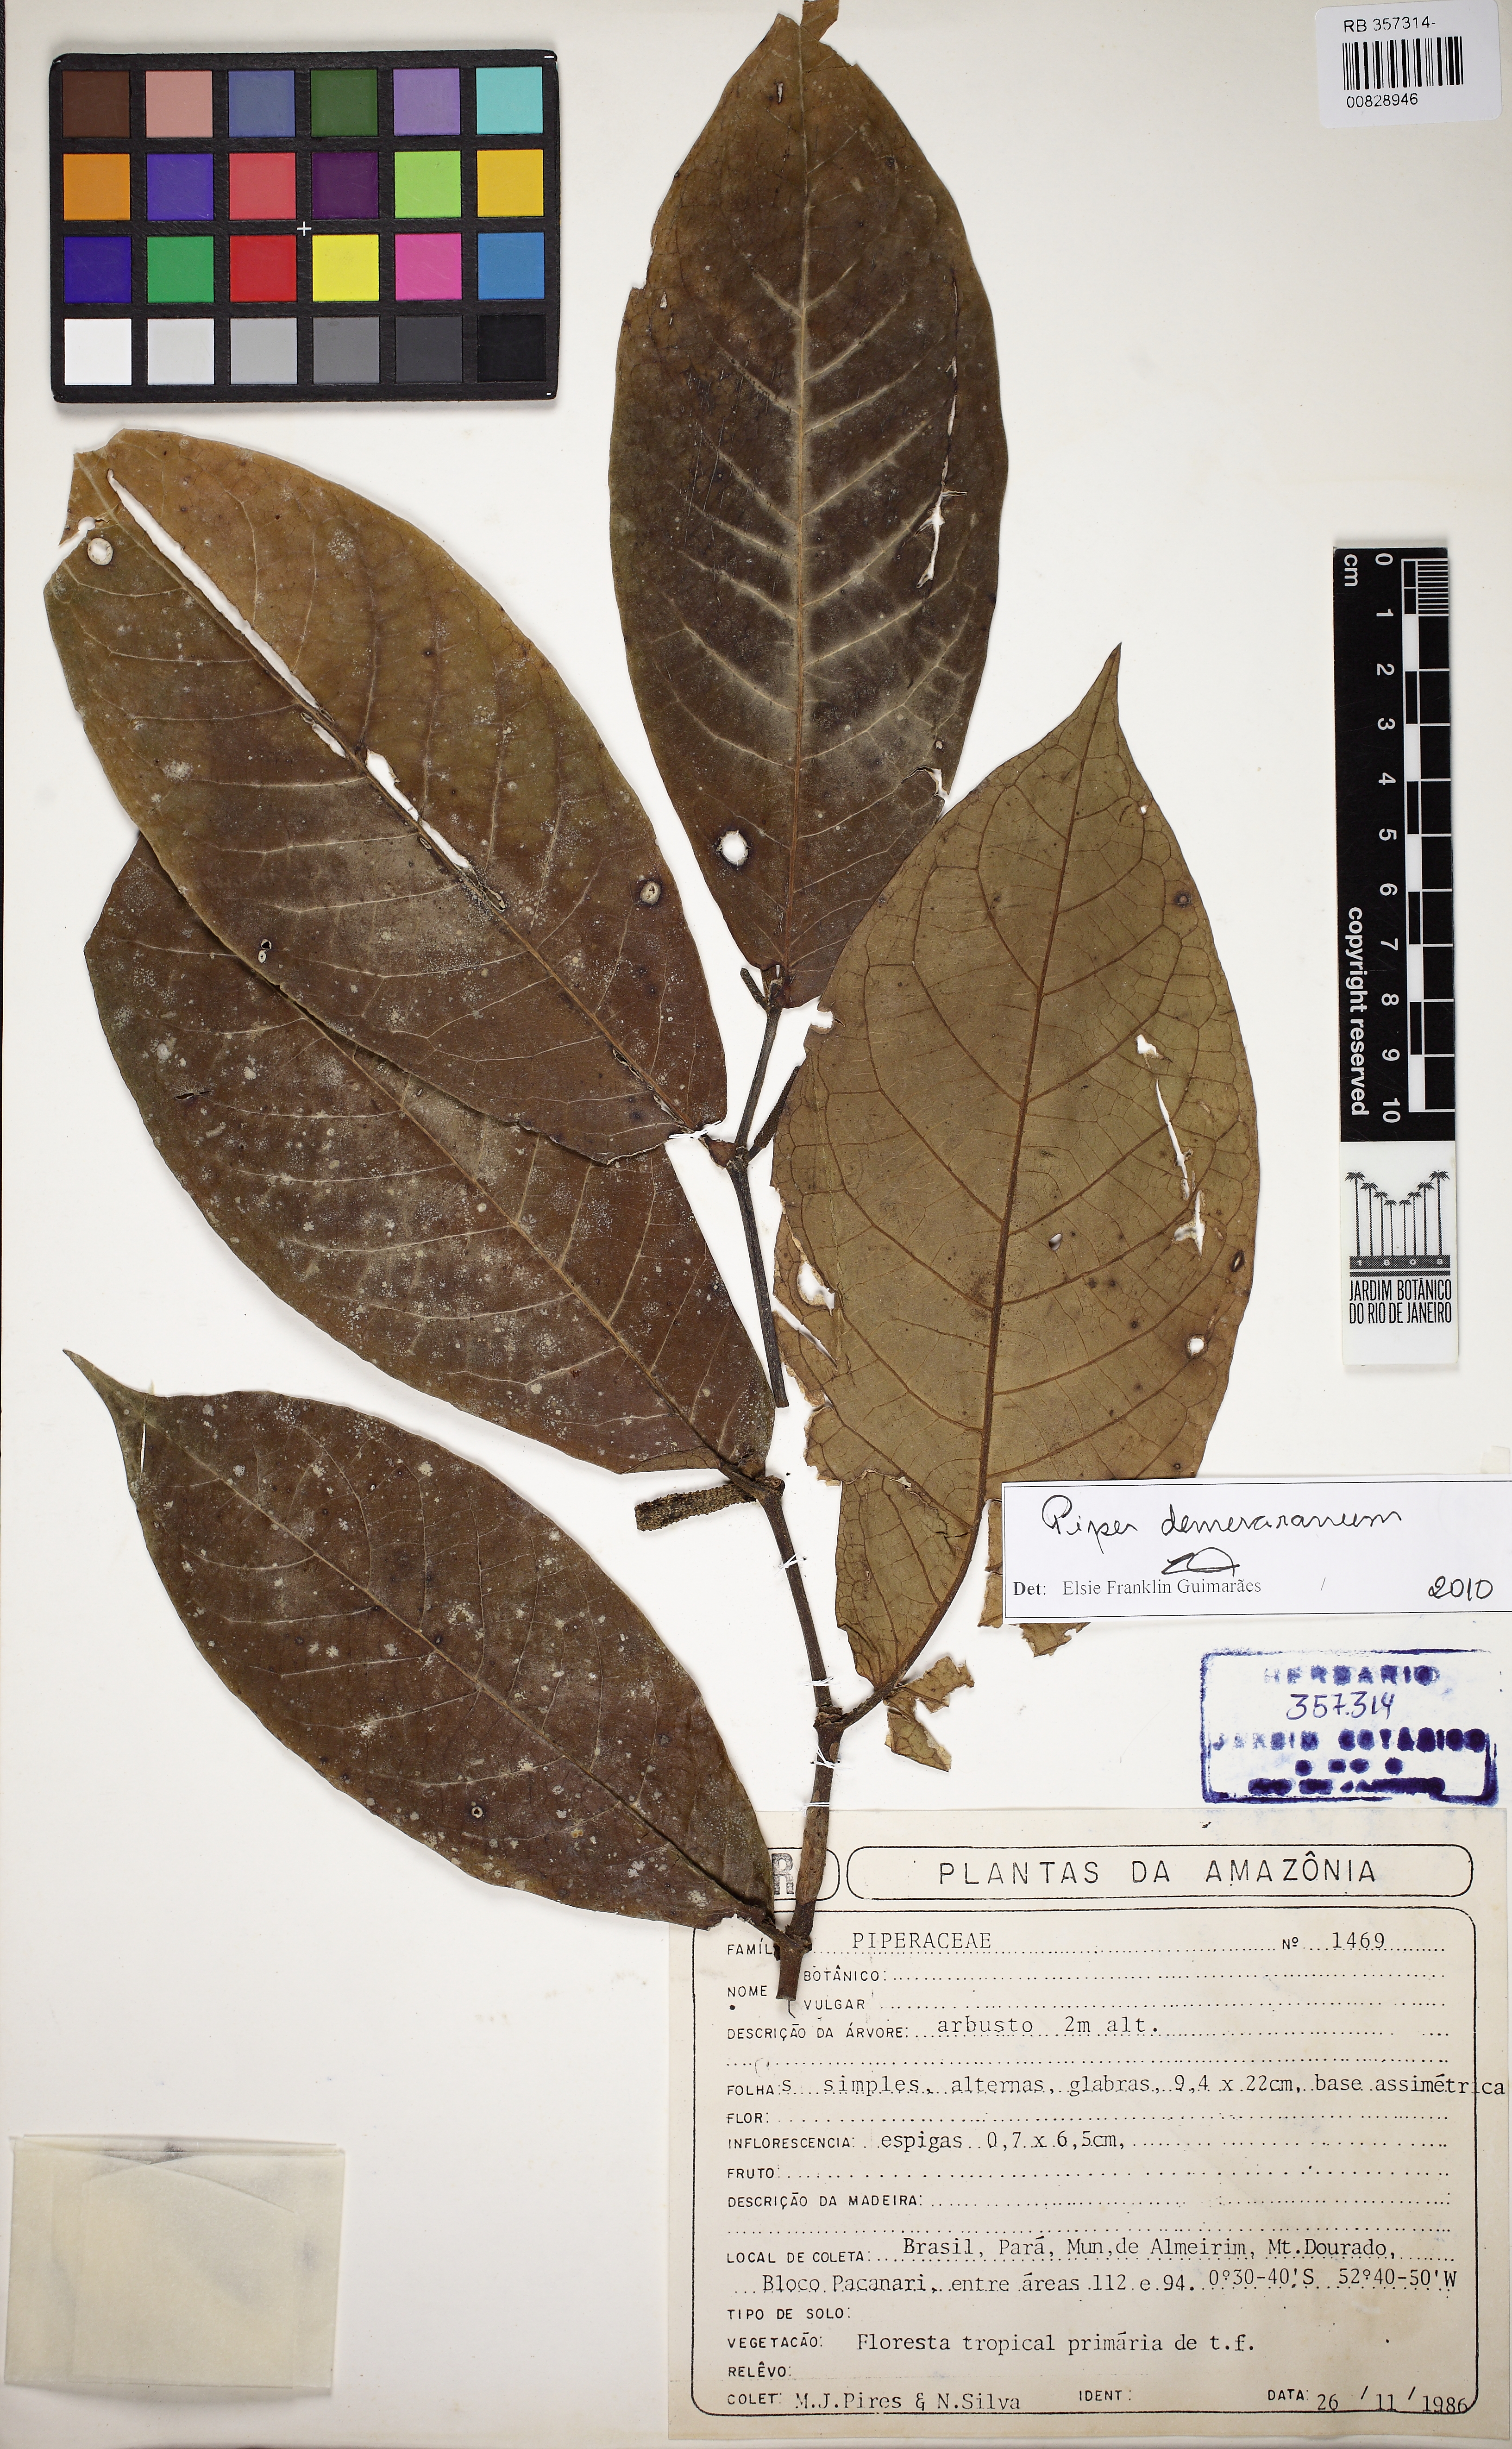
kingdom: Plantae
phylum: Tracheophyta
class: Magnoliopsida
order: Piperales
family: Piperaceae
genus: Piper
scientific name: Piper demeraranum
